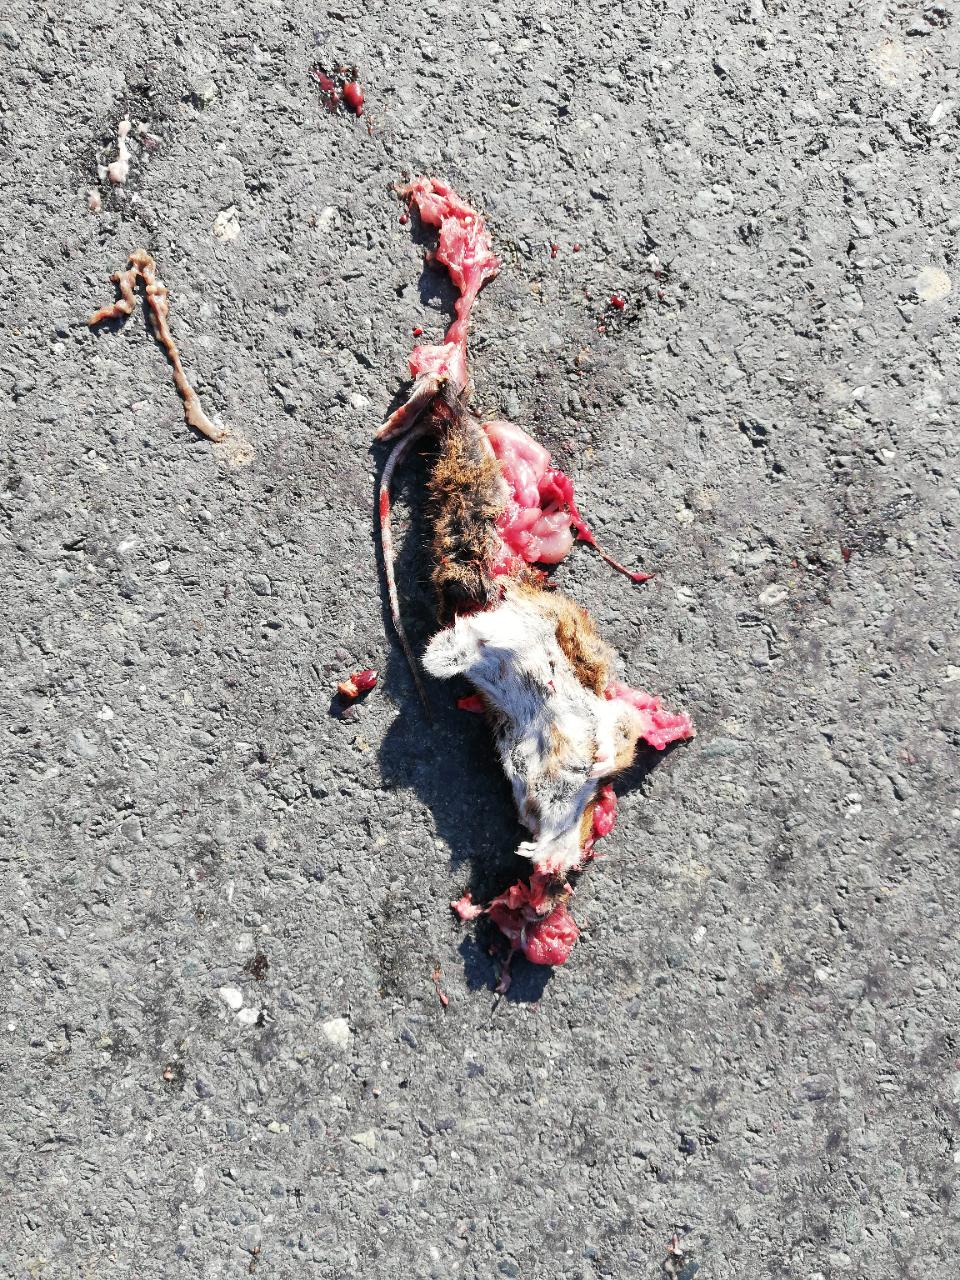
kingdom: Animalia
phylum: Chordata
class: Mammalia
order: Rodentia
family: Muridae
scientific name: Muridae
